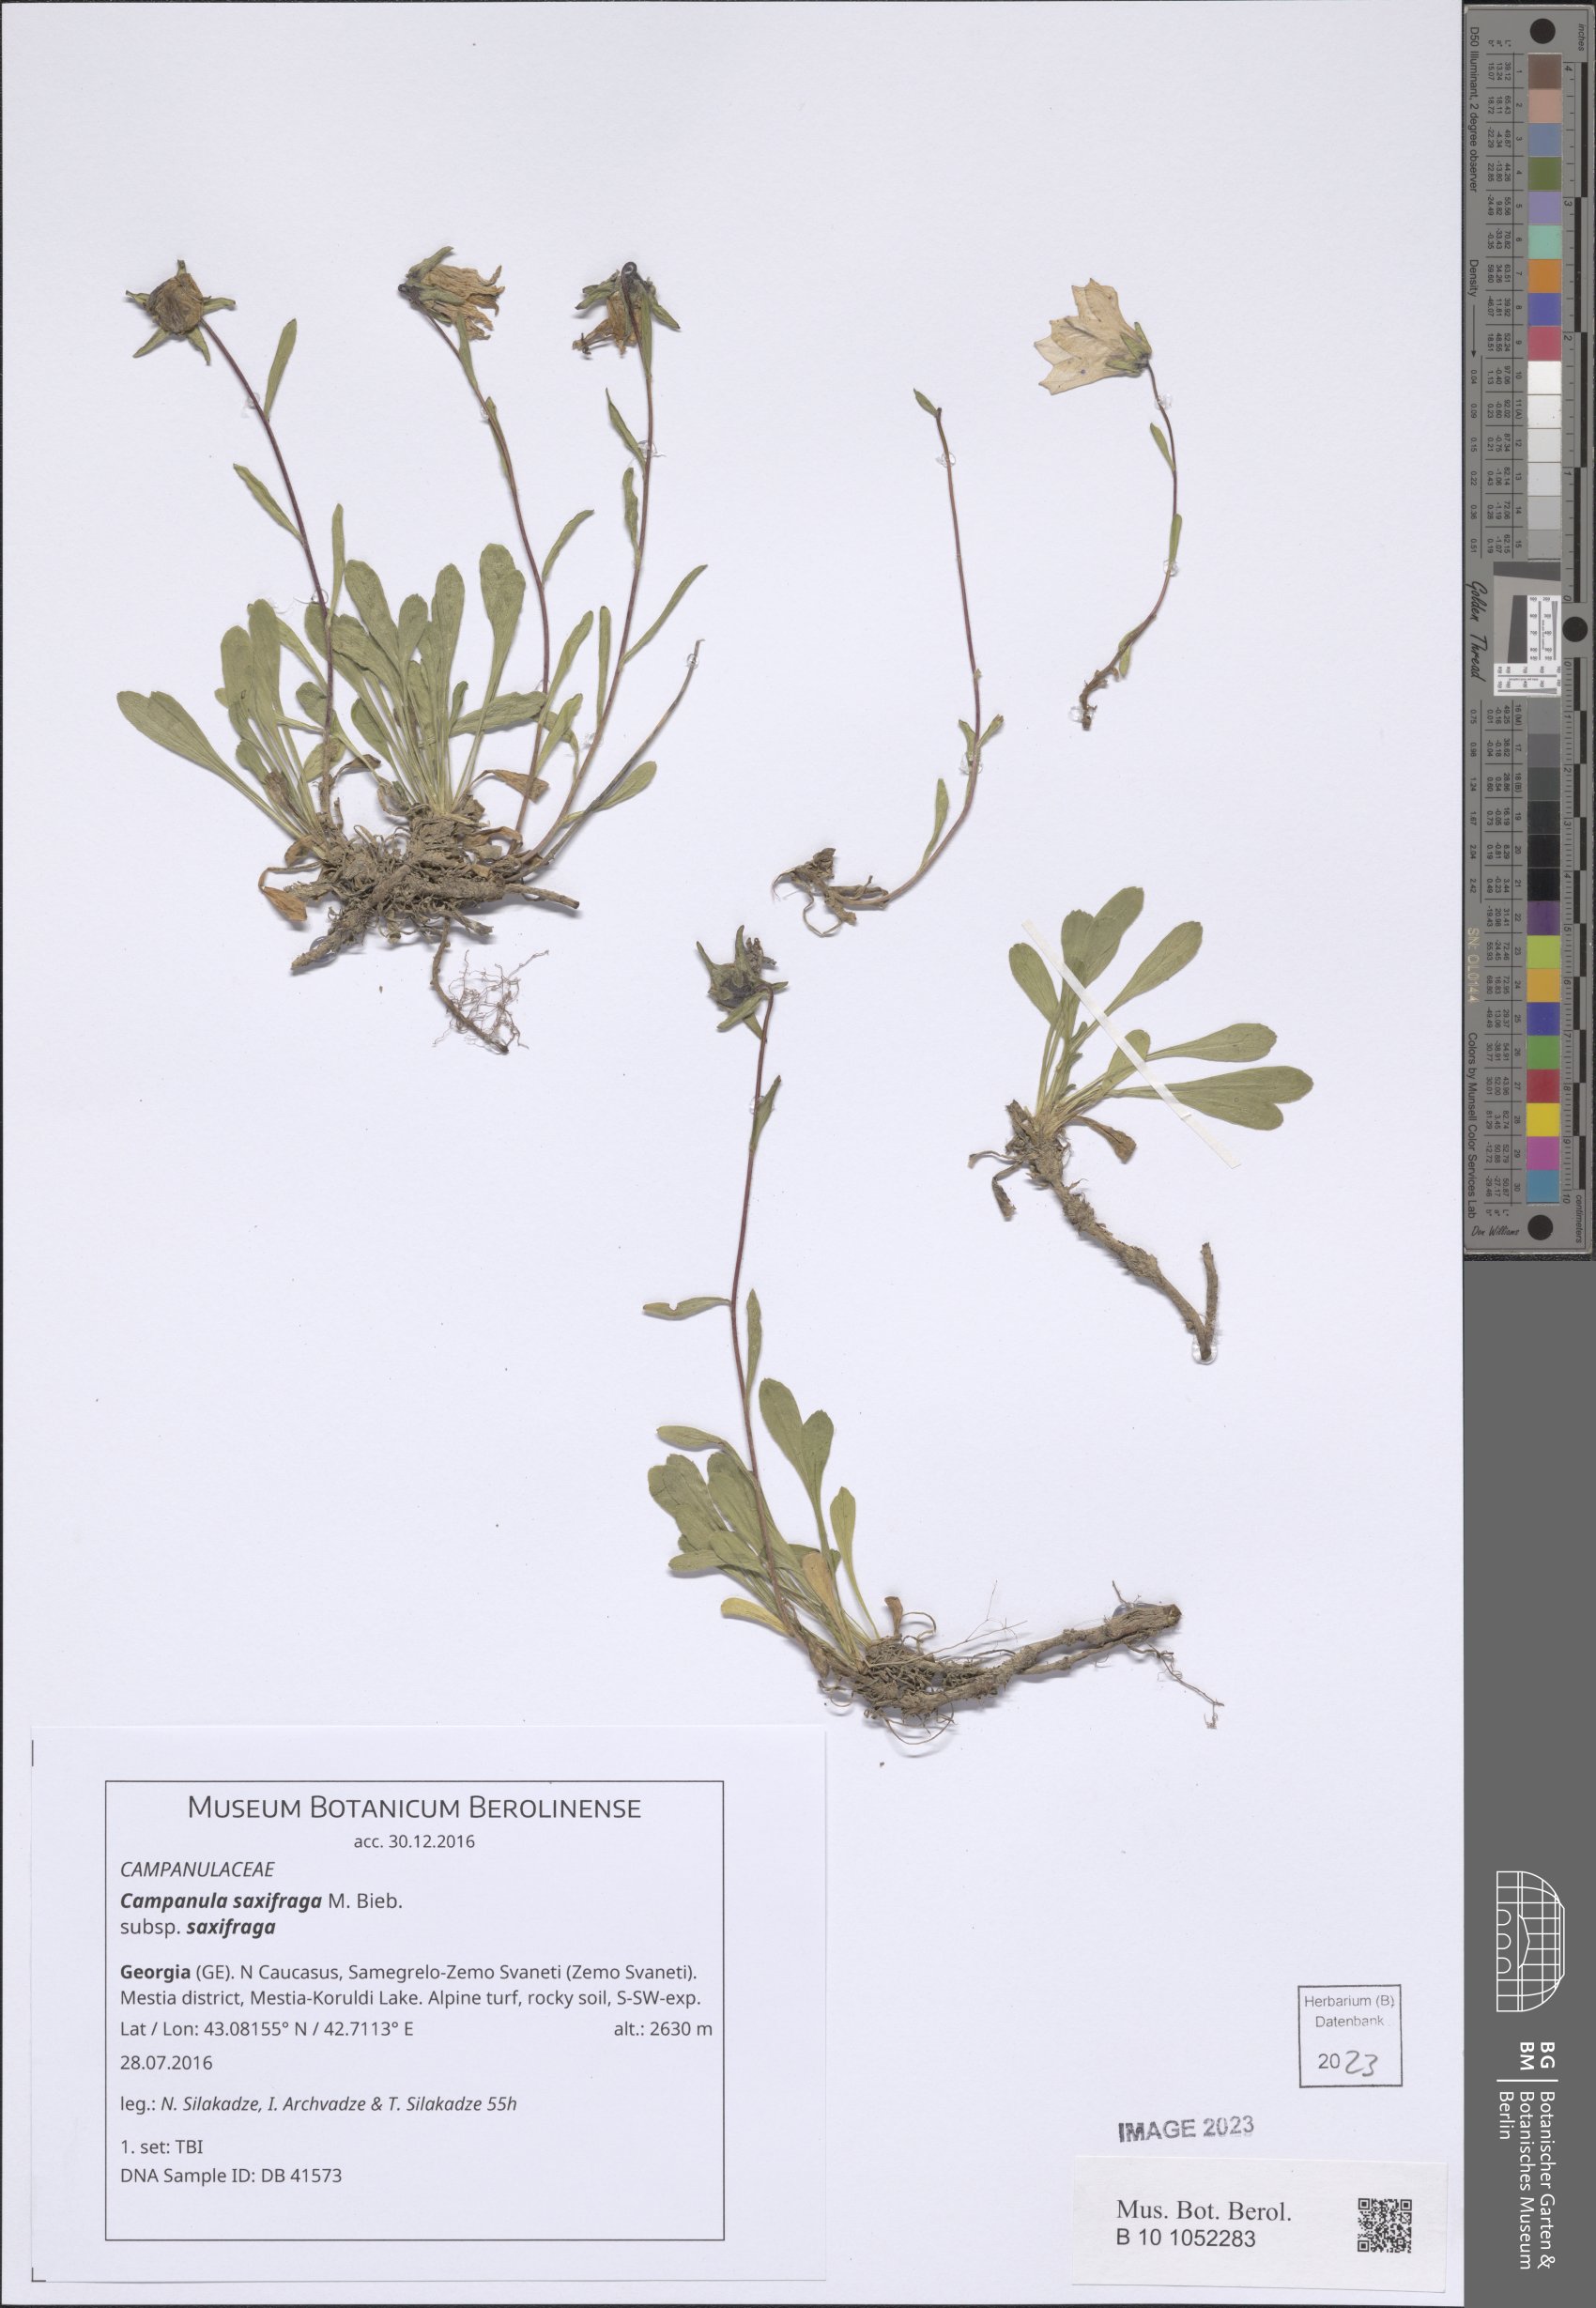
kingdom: Plantae
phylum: Tracheophyta
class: Magnoliopsida
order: Asterales
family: Campanulaceae
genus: Campanula
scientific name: Campanula saxifraga
